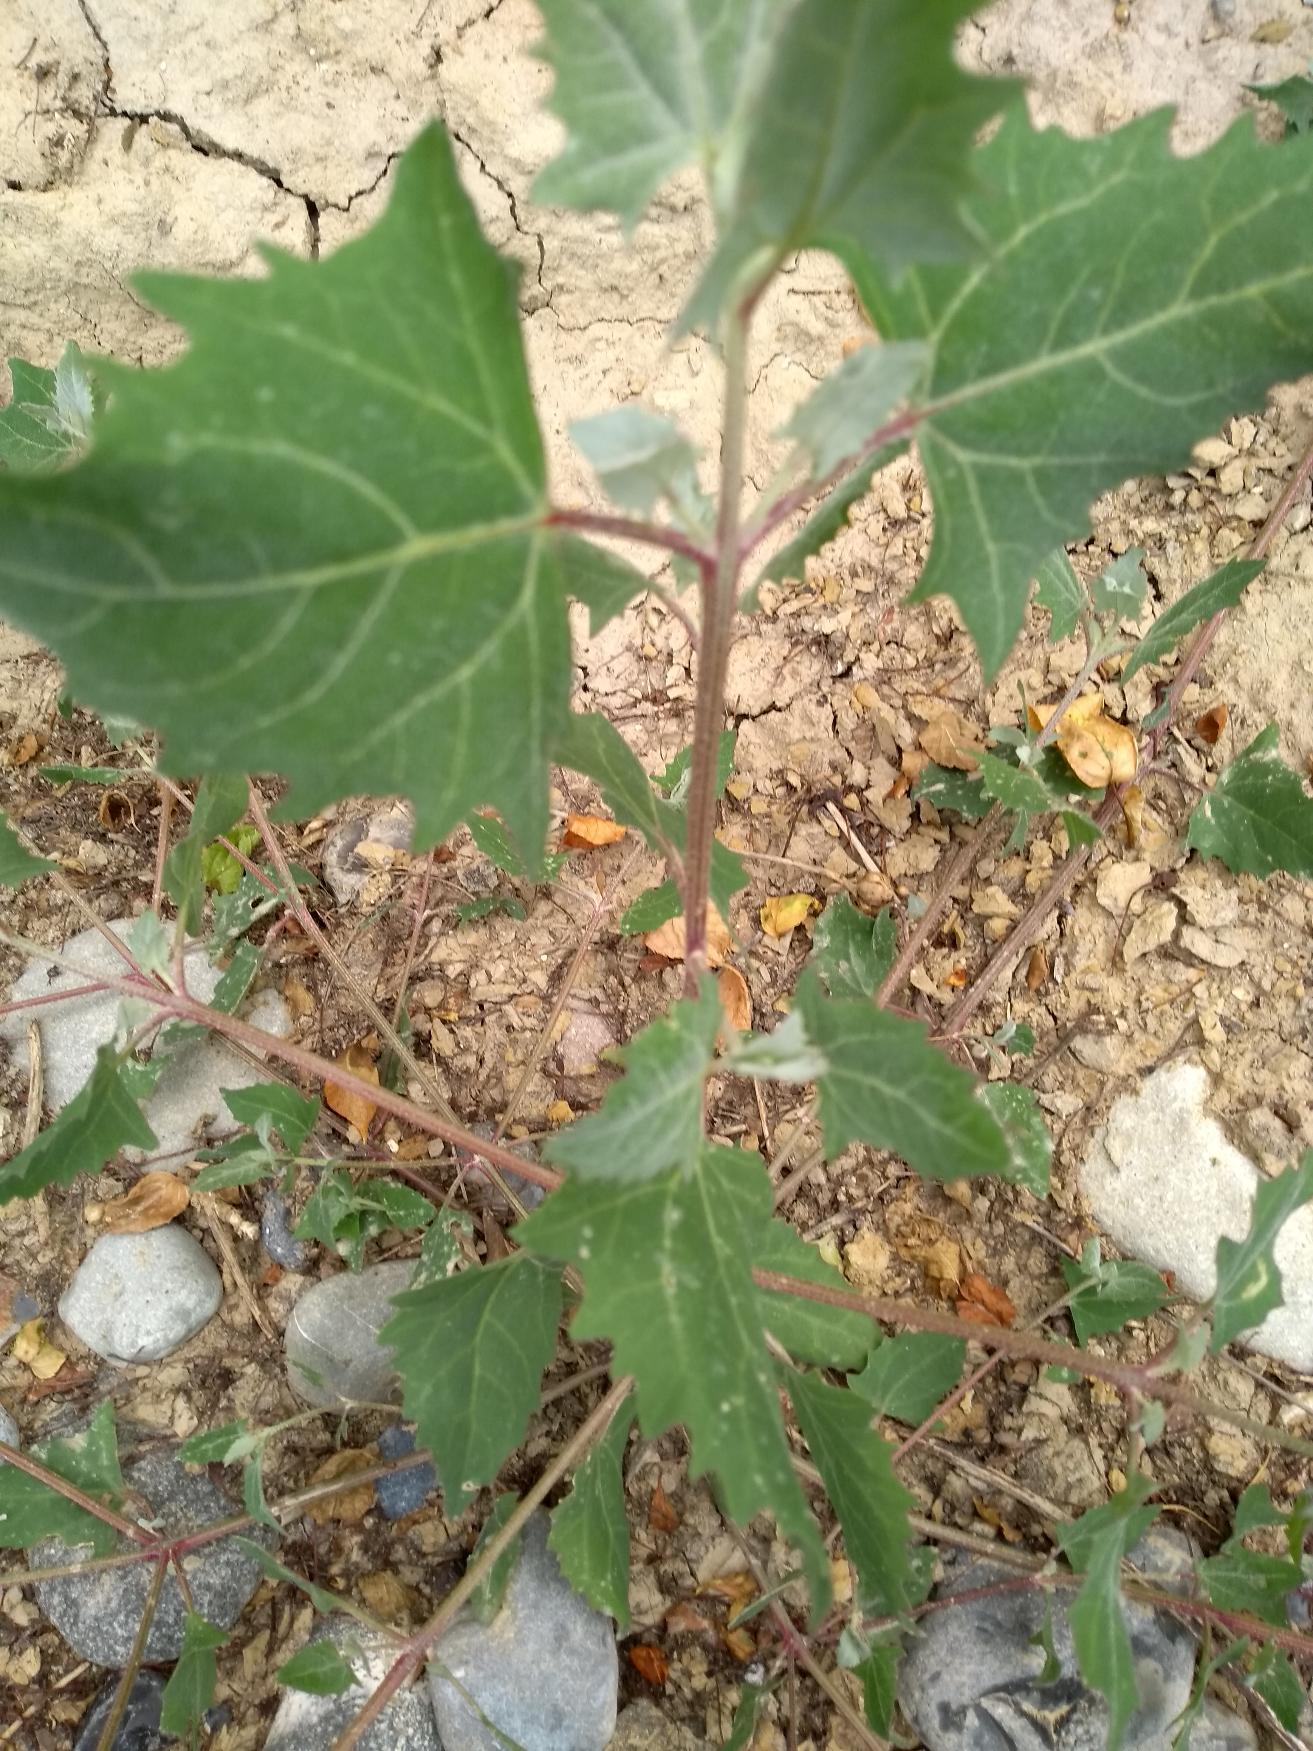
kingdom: Plantae
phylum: Tracheophyta
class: Magnoliopsida
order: Caryophyllales
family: Amaranthaceae
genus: Atriplex
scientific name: Atriplex prostrata
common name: Spyd-mælde
